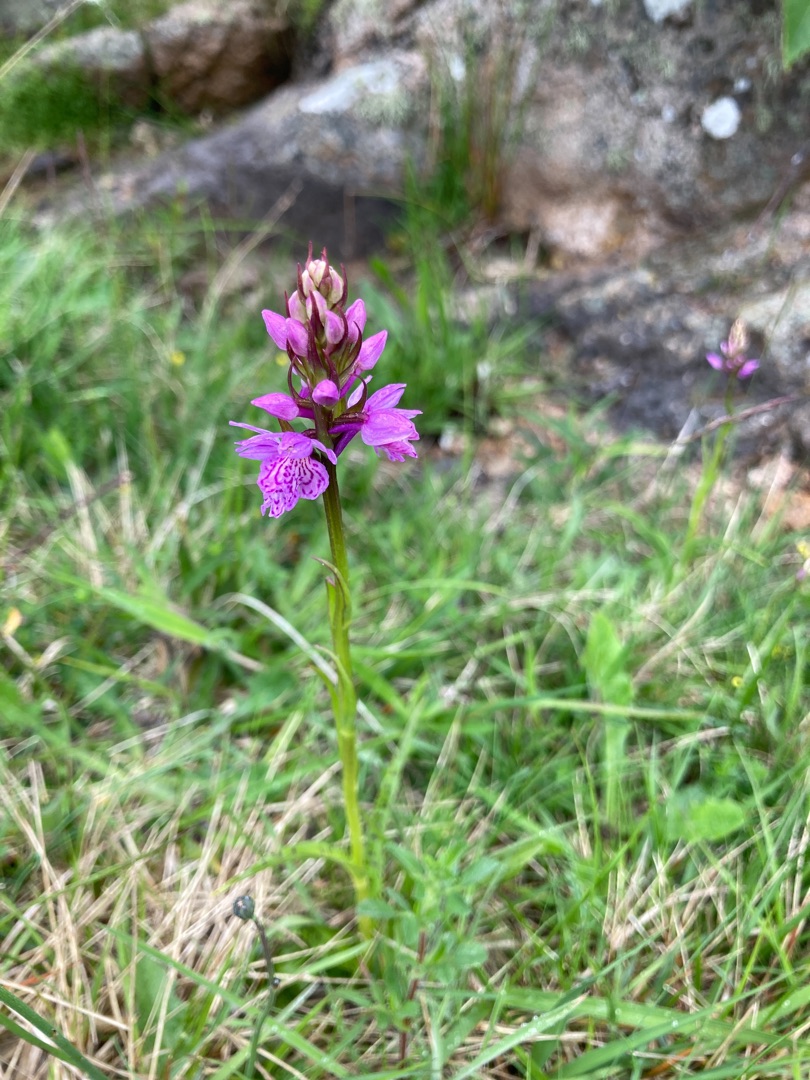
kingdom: Plantae
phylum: Tracheophyta
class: Liliopsida
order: Asparagales
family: Orchidaceae
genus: Dactylorhiza
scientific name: Dactylorhiza maculata
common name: Plettet gøgeurt
